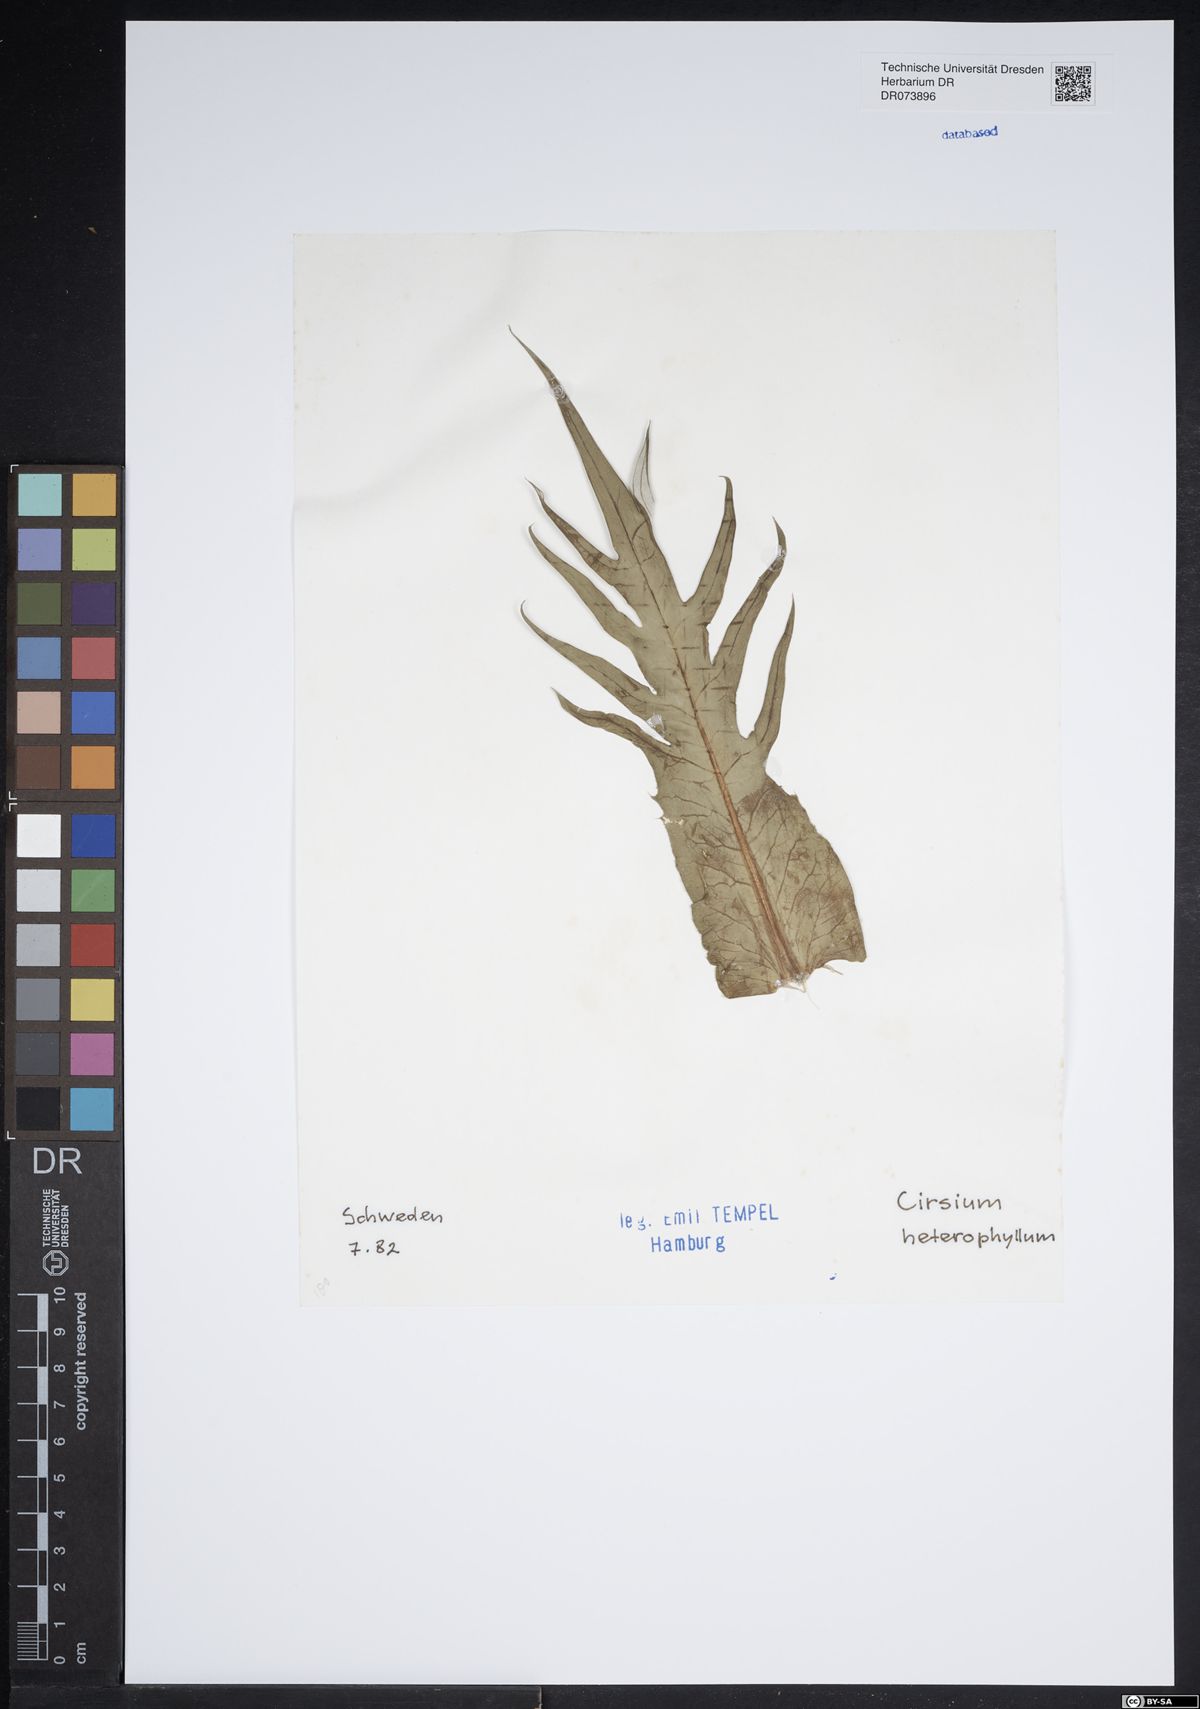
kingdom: Plantae
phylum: Tracheophyta
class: Magnoliopsida
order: Asterales
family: Asteraceae
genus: Cirsium
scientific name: Cirsium heterophyllum
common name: Melancholy thistle
